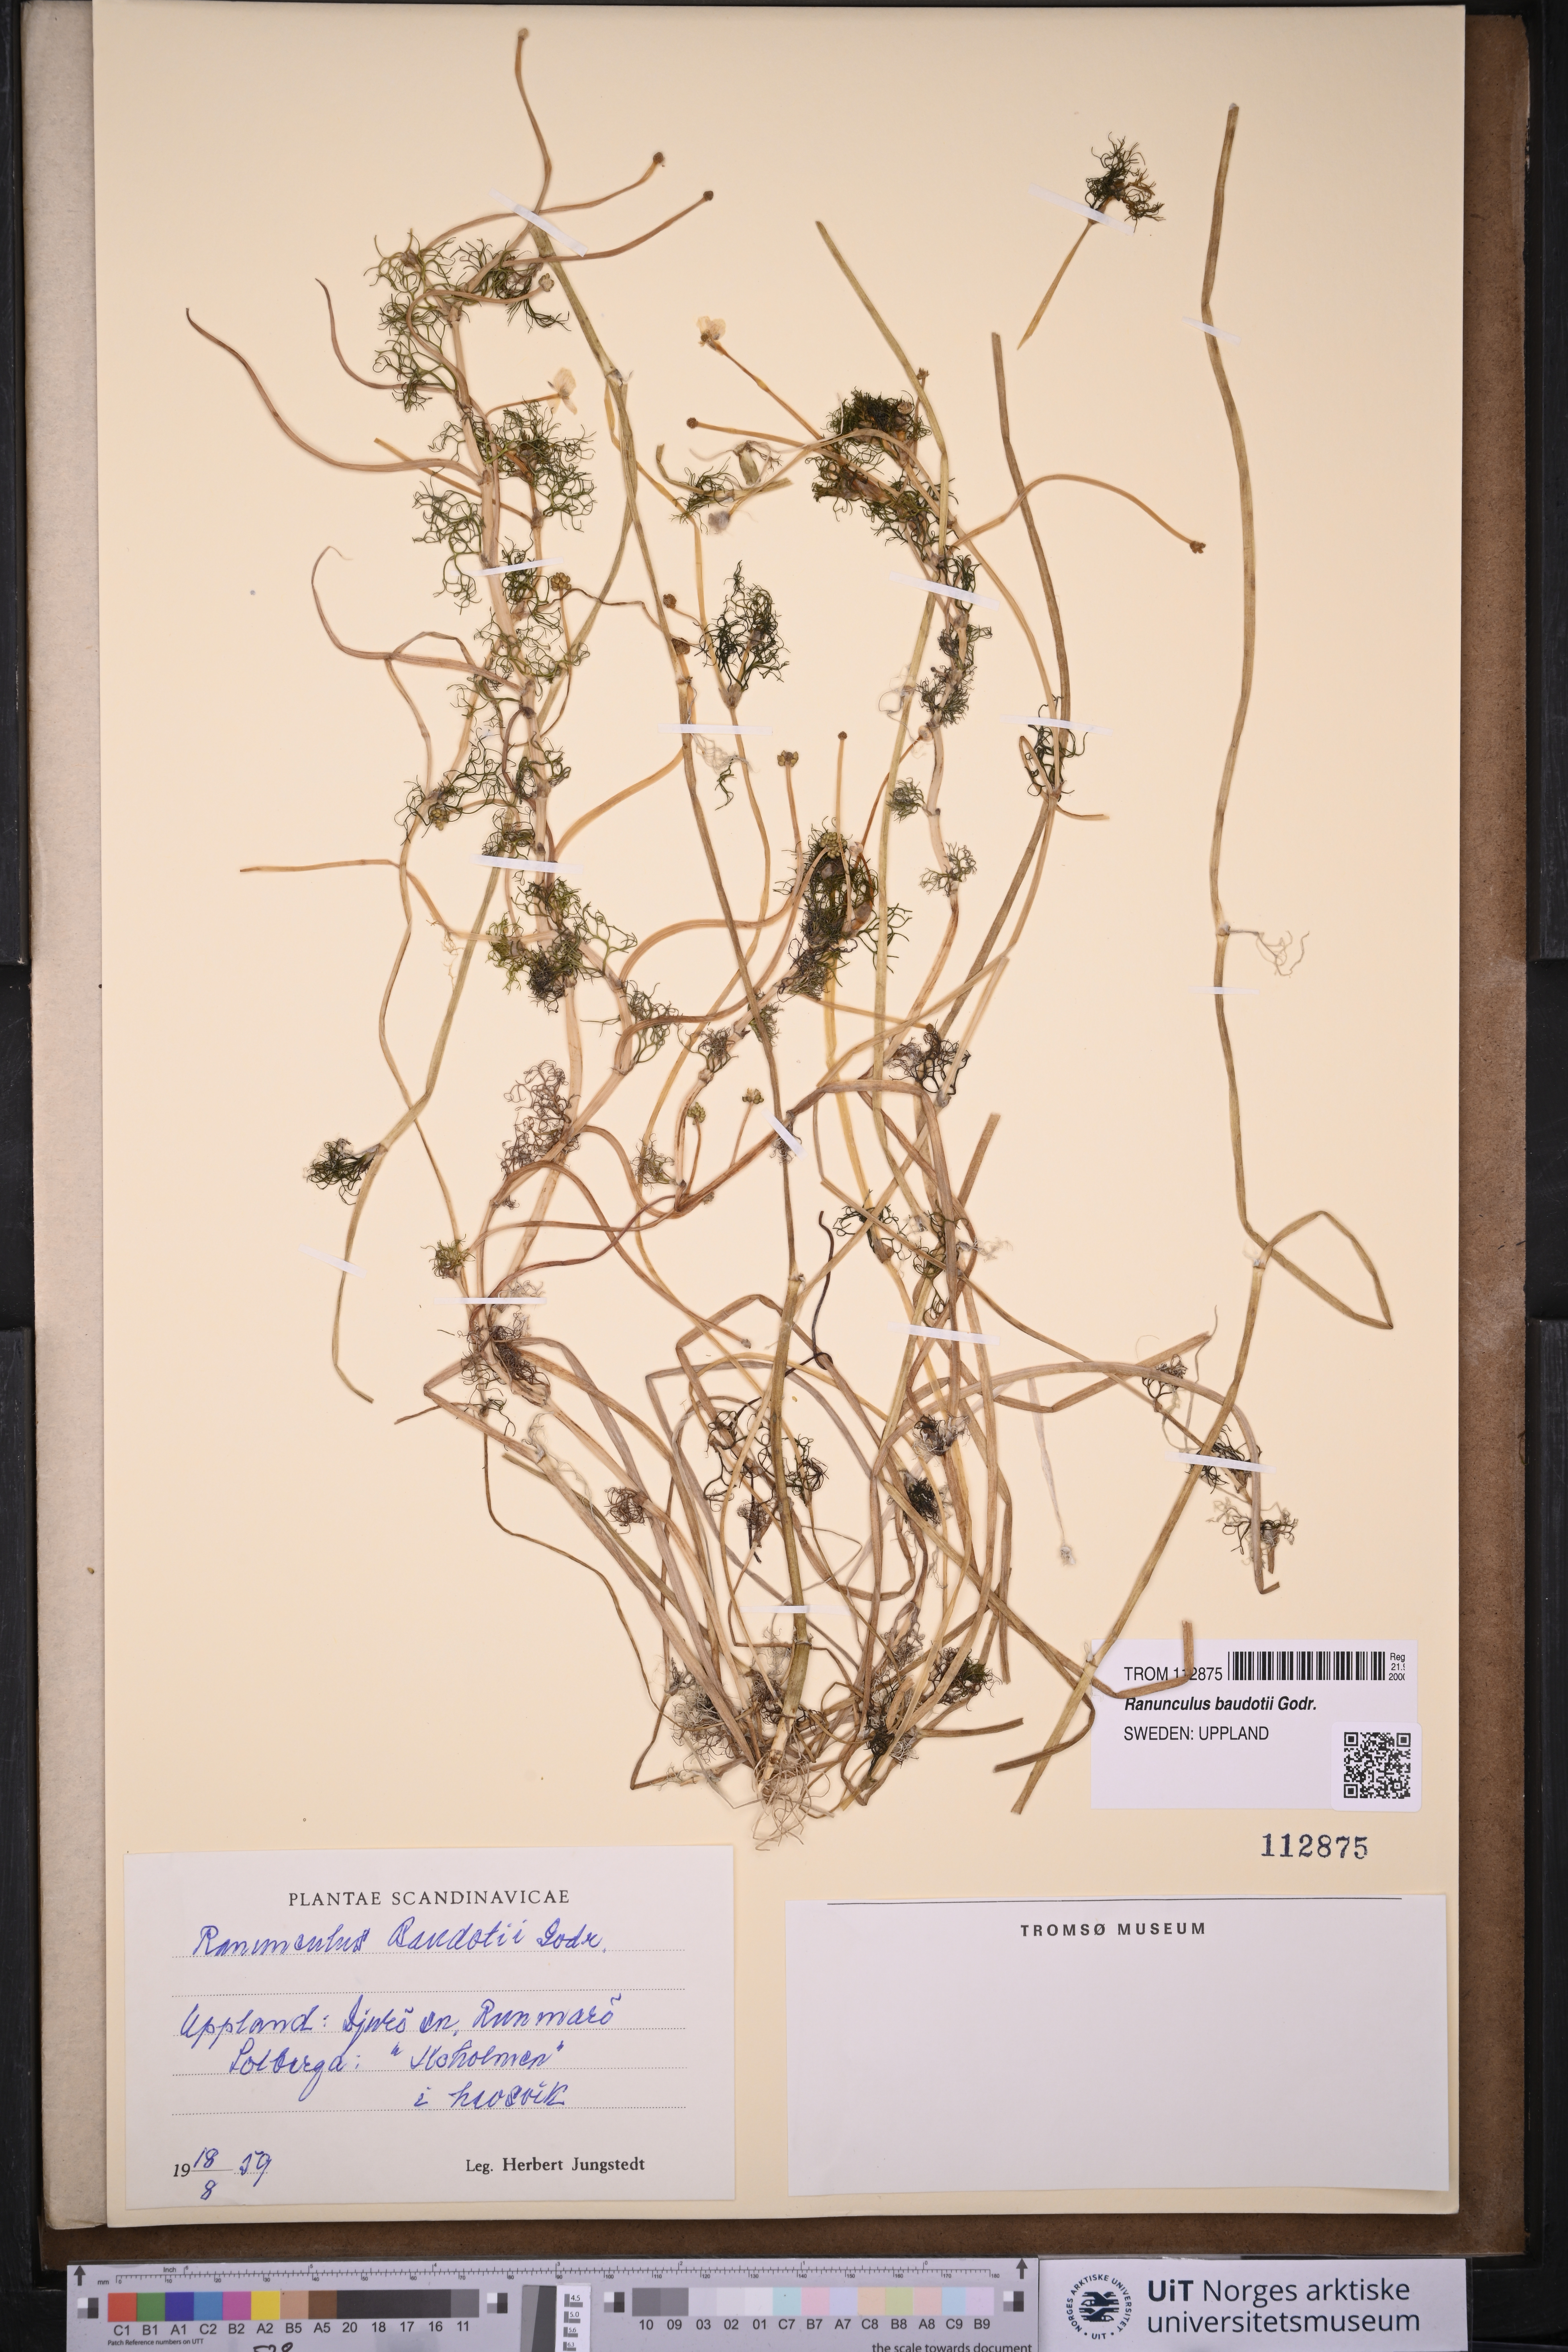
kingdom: Plantae
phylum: Tracheophyta
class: Magnoliopsida
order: Ranunculales
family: Ranunculaceae
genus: Ranunculus
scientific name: Ranunculus peltatus
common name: Pond water-crowfoot
